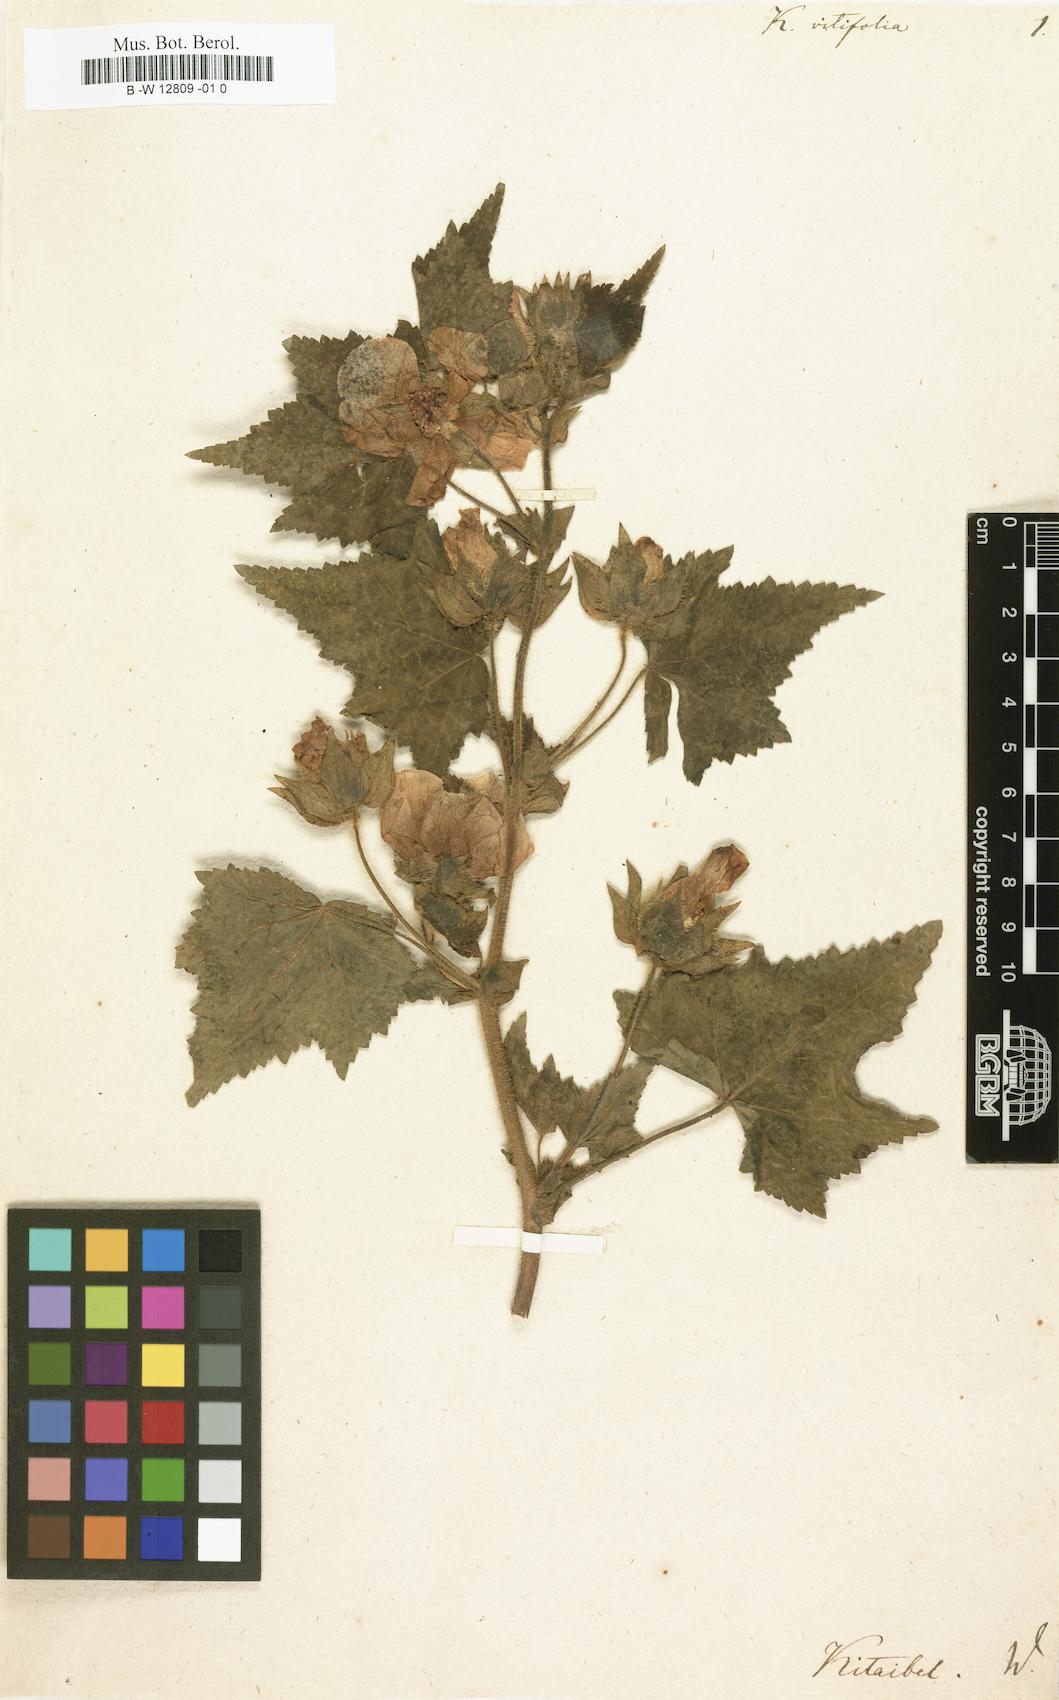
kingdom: Plantae
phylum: Tracheophyta
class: Magnoliopsida
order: Malvales
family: Malvaceae
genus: Kitaibela
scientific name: Kitaibela vitifolia
